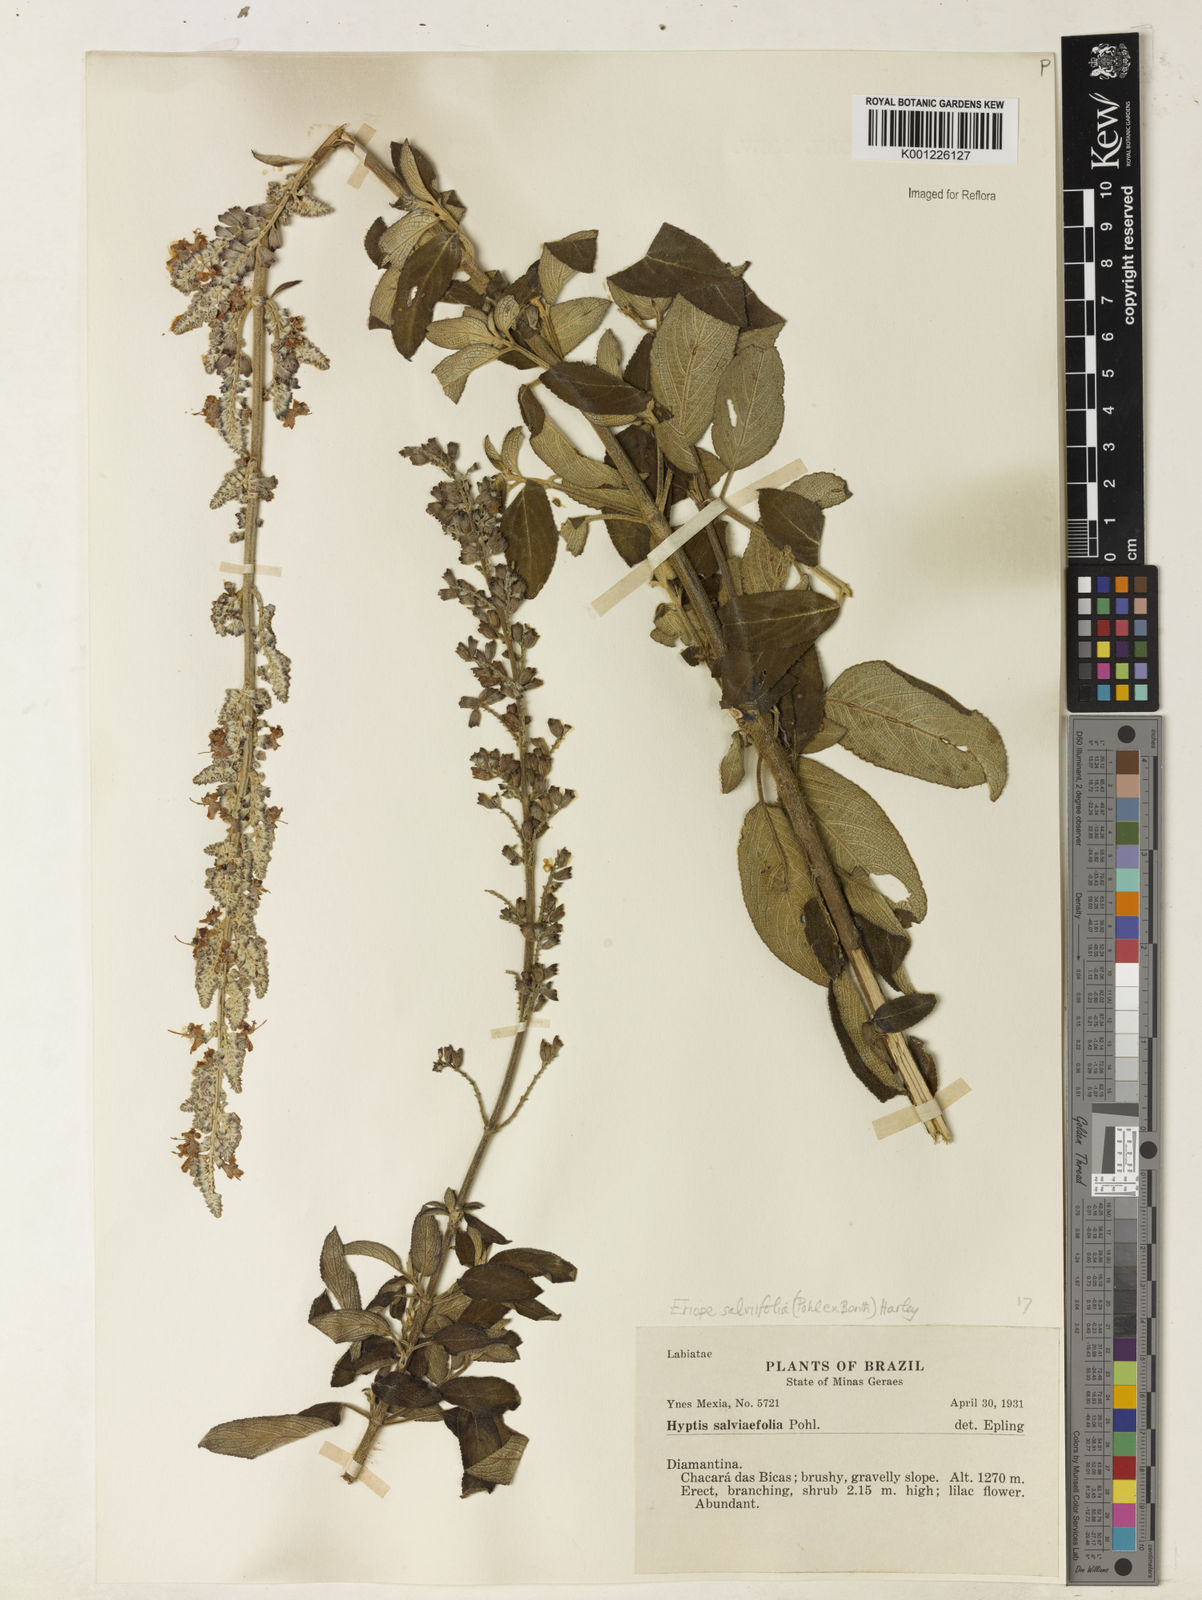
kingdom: Plantae
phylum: Tracheophyta
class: Magnoliopsida
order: Lamiales
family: Lamiaceae
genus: Eriope
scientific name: Eriope salviifolia
